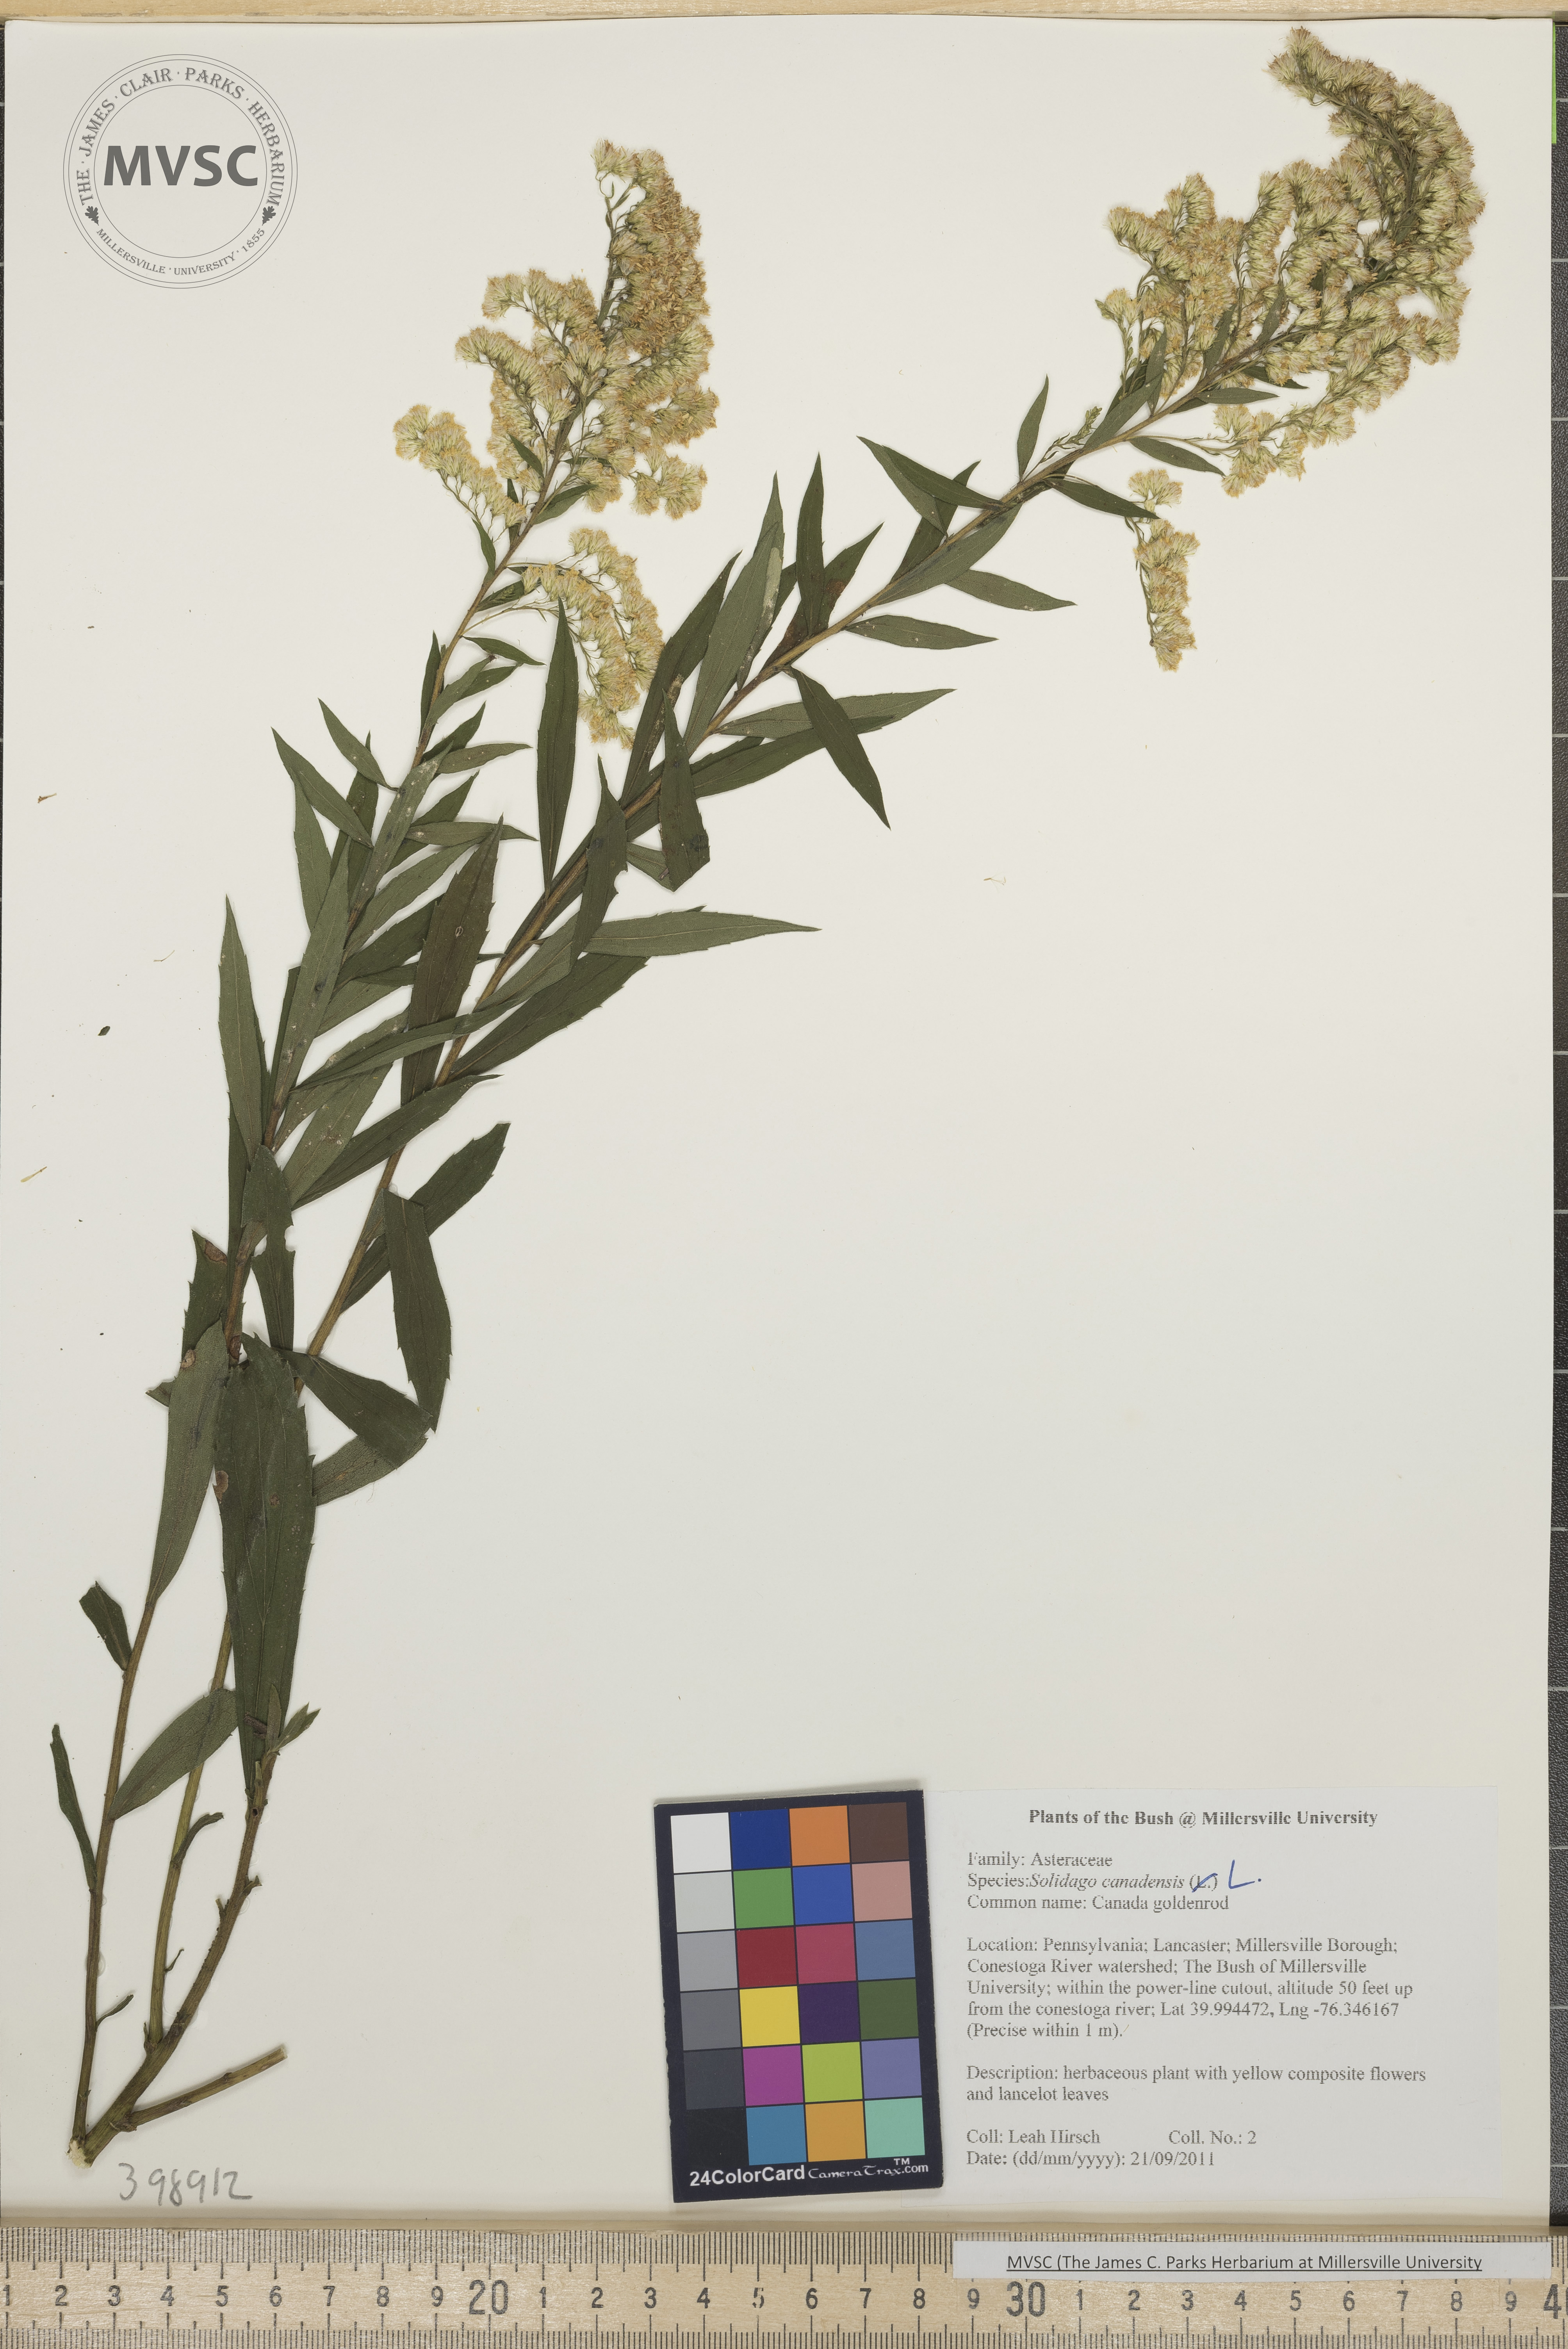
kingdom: Plantae
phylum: Tracheophyta
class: Magnoliopsida
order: Asterales
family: Asteraceae
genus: Solidago
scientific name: Solidago altissima
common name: Late goldenrod
